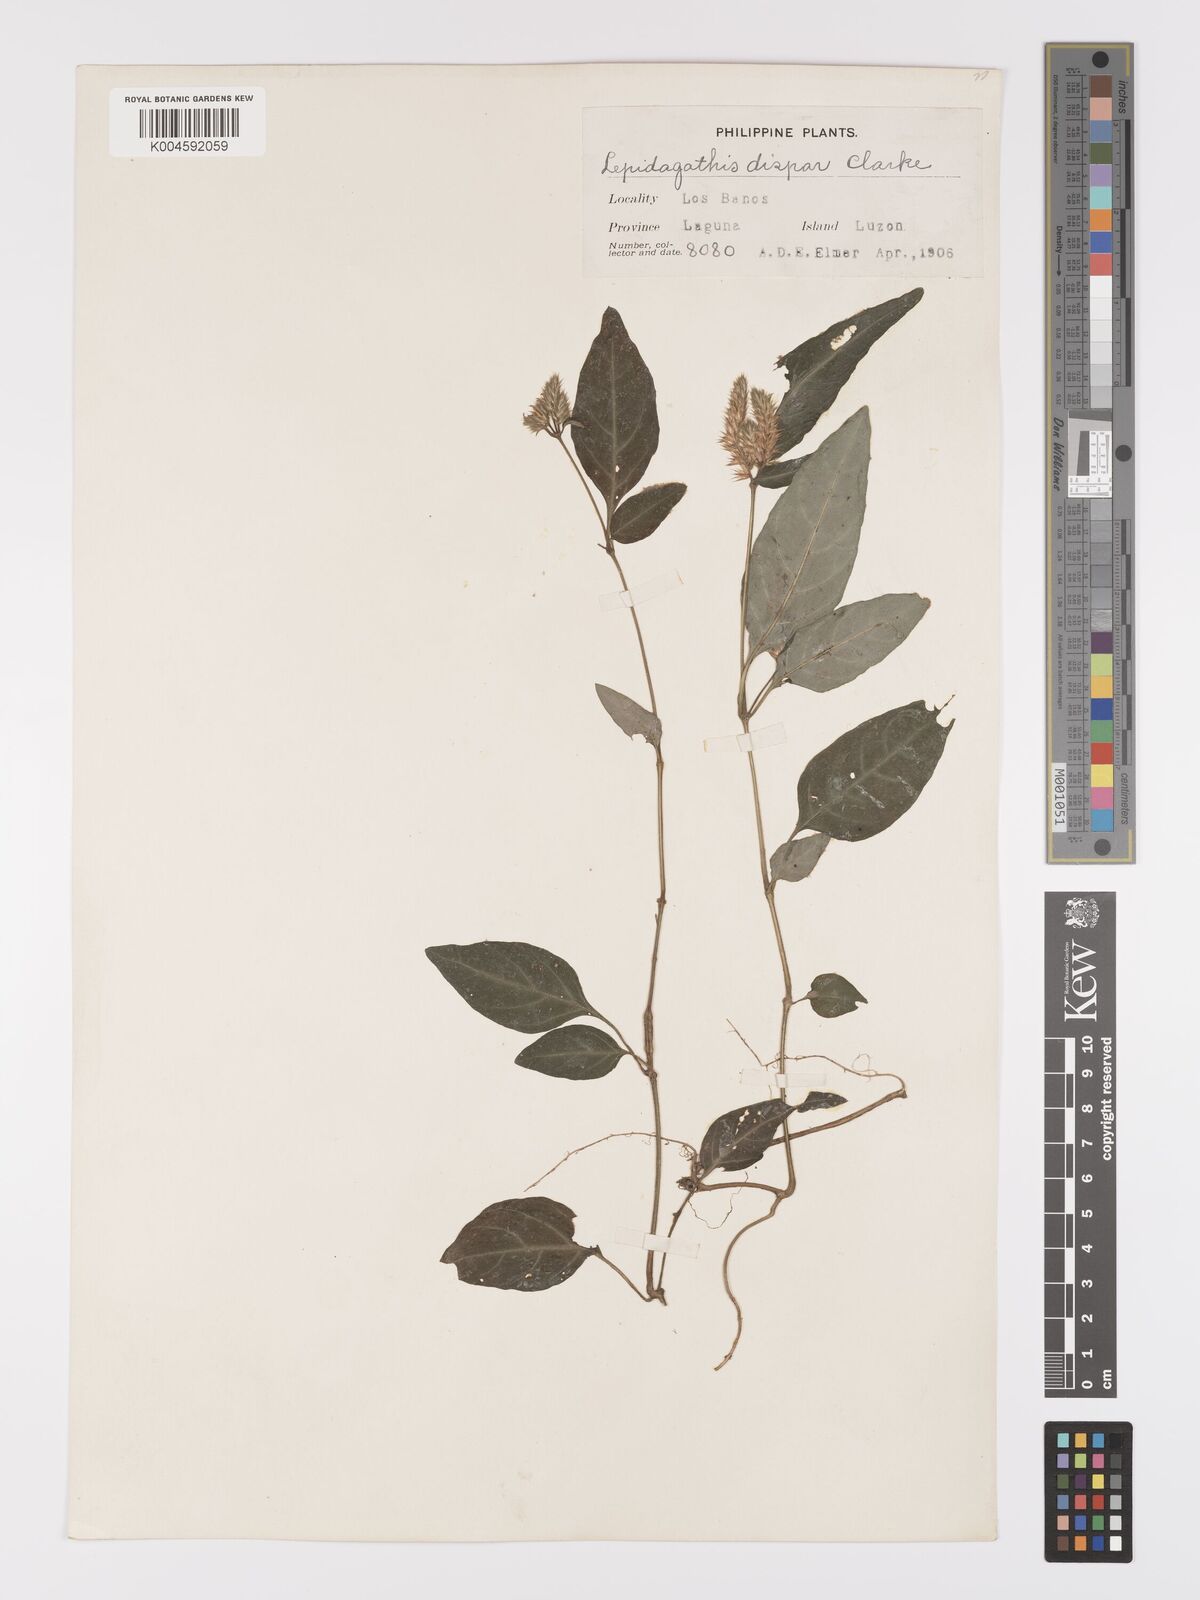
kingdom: Plantae
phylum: Tracheophyta
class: Magnoliopsida
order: Lamiales
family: Acanthaceae
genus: Lepidagathis
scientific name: Lepidagathis dispar
